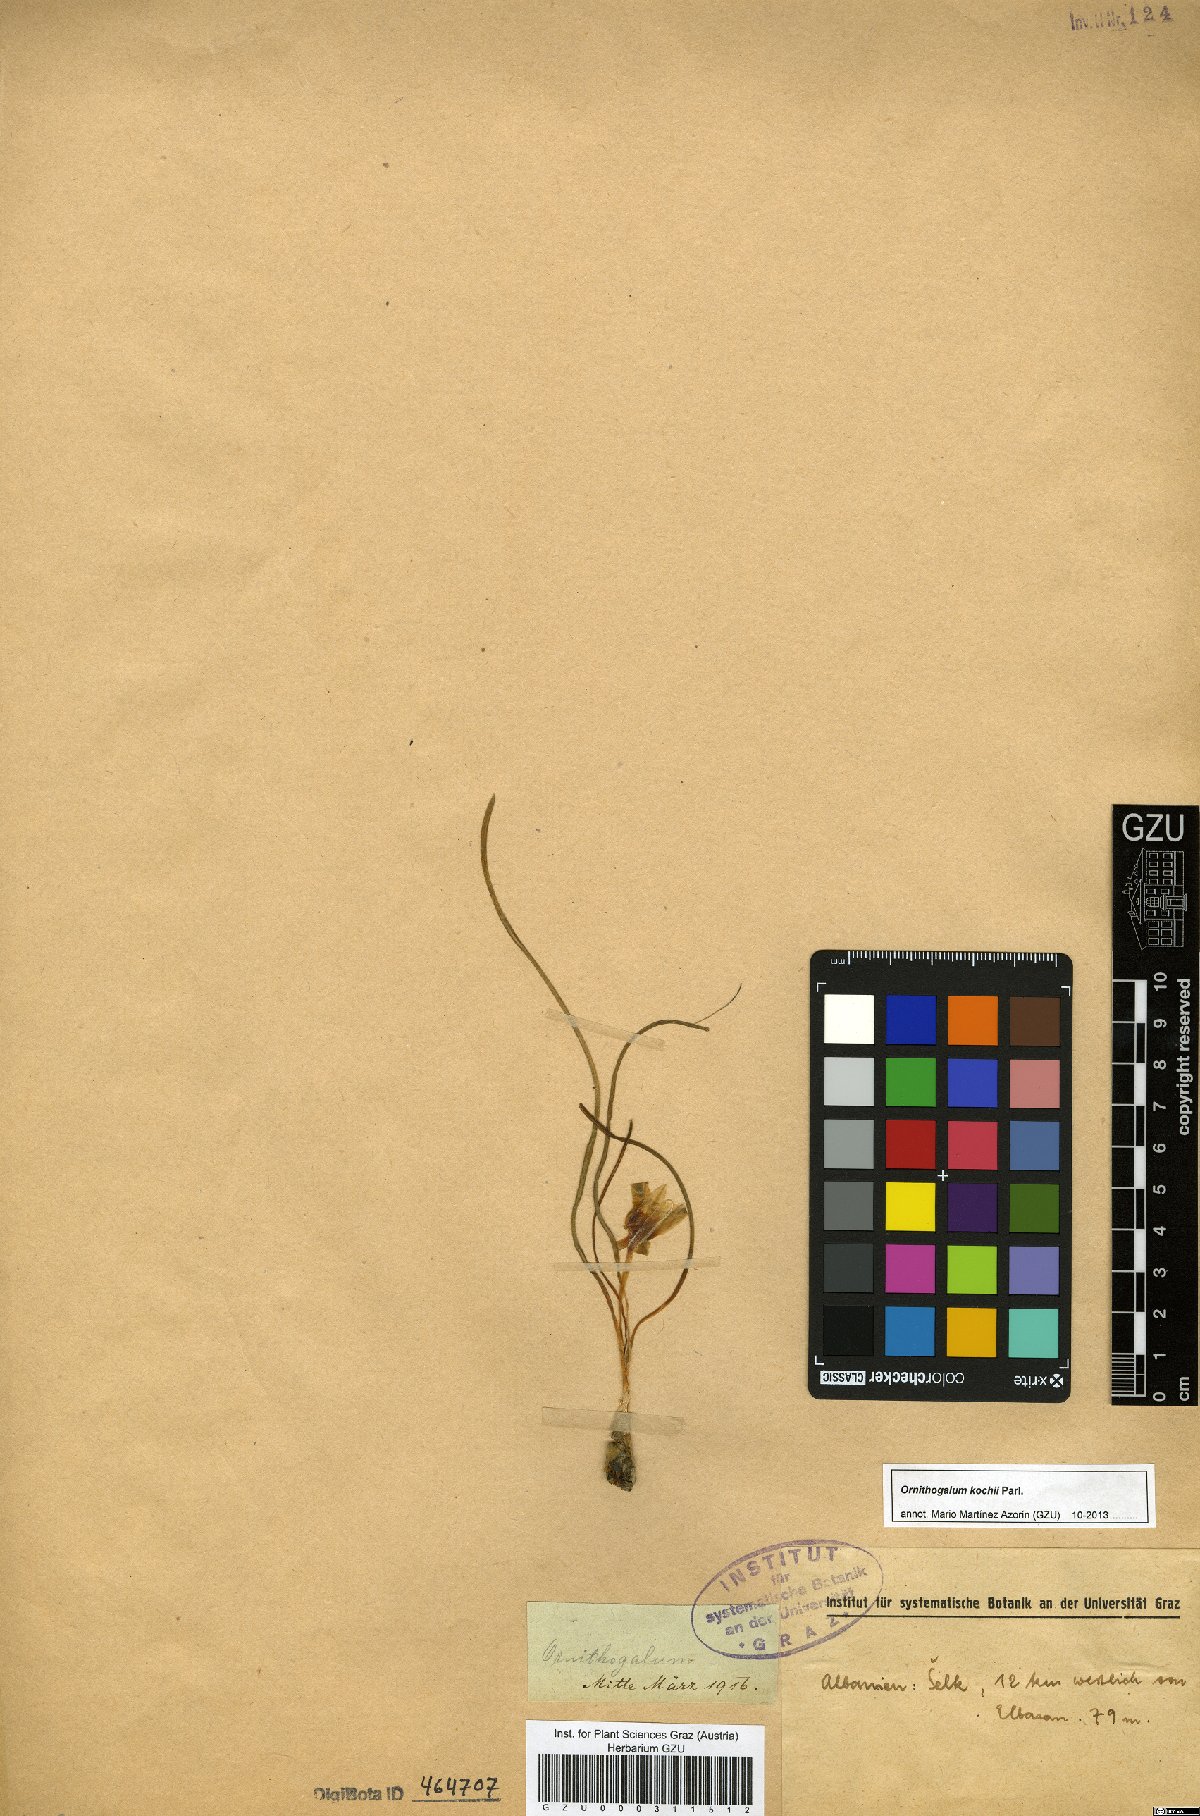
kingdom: Plantae
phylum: Tracheophyta
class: Liliopsida
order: Asparagales
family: Asparagaceae
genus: Ornithogalum
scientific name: Ornithogalum orthophyllum
